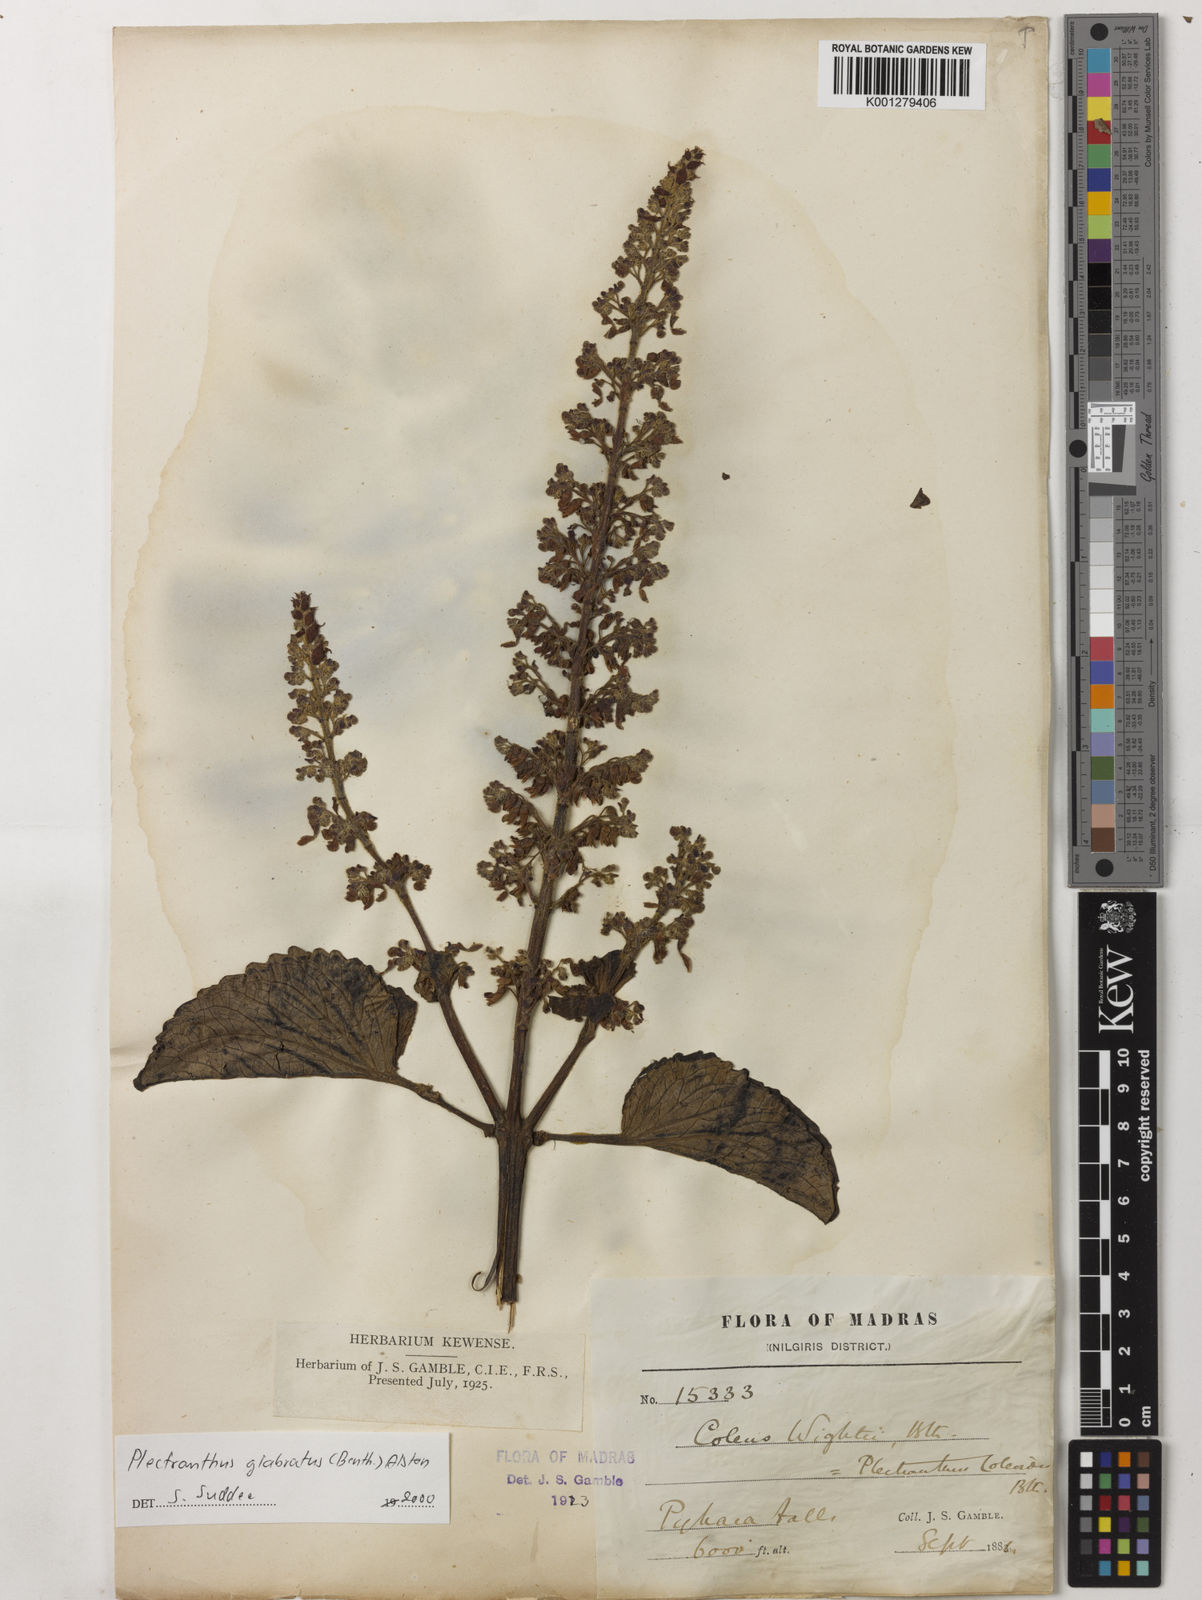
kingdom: Plantae
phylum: Tracheophyta
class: Magnoliopsida
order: Lamiales
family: Lamiaceae
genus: Coleus
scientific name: Coleus paniculatus
